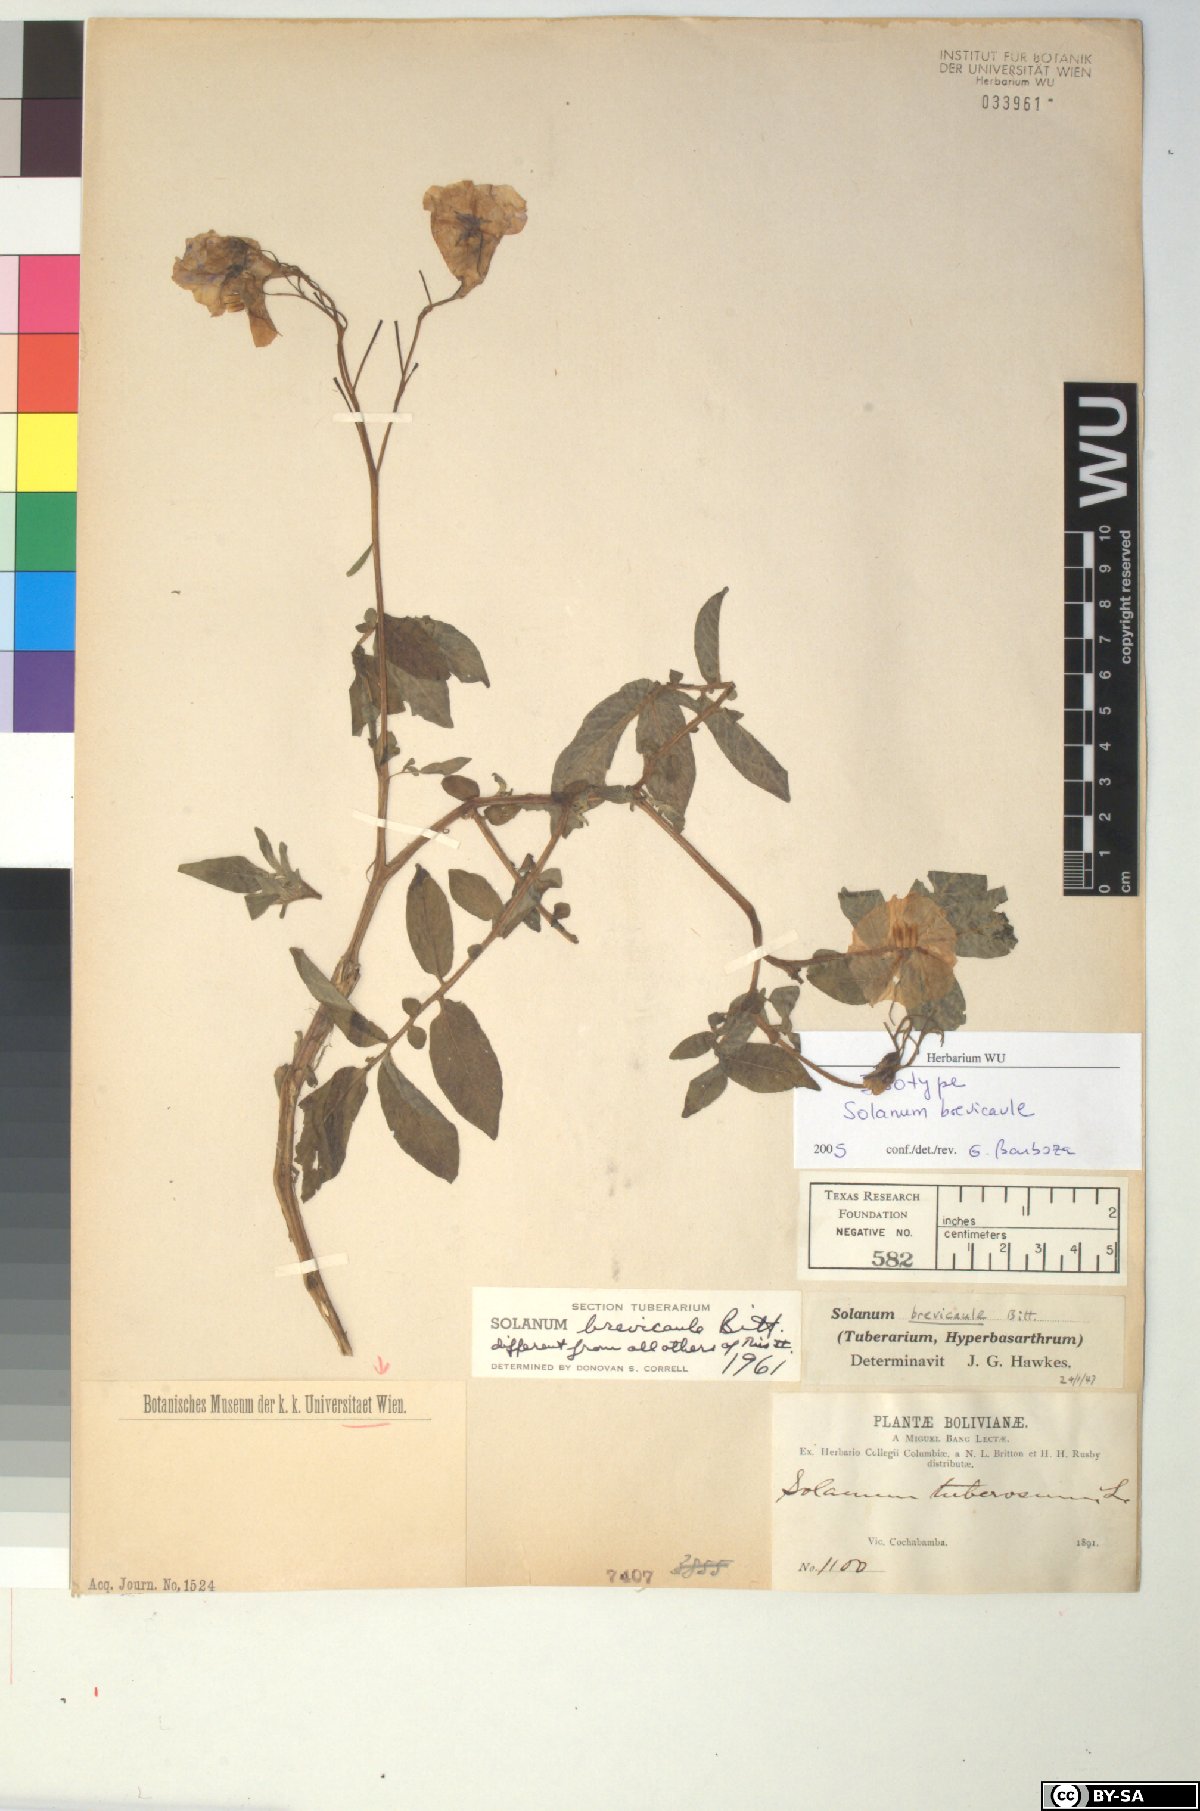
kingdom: Plantae
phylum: Tracheophyta
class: Magnoliopsida
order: Solanales
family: Solanaceae
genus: Solanum
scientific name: Solanum brevicaule
